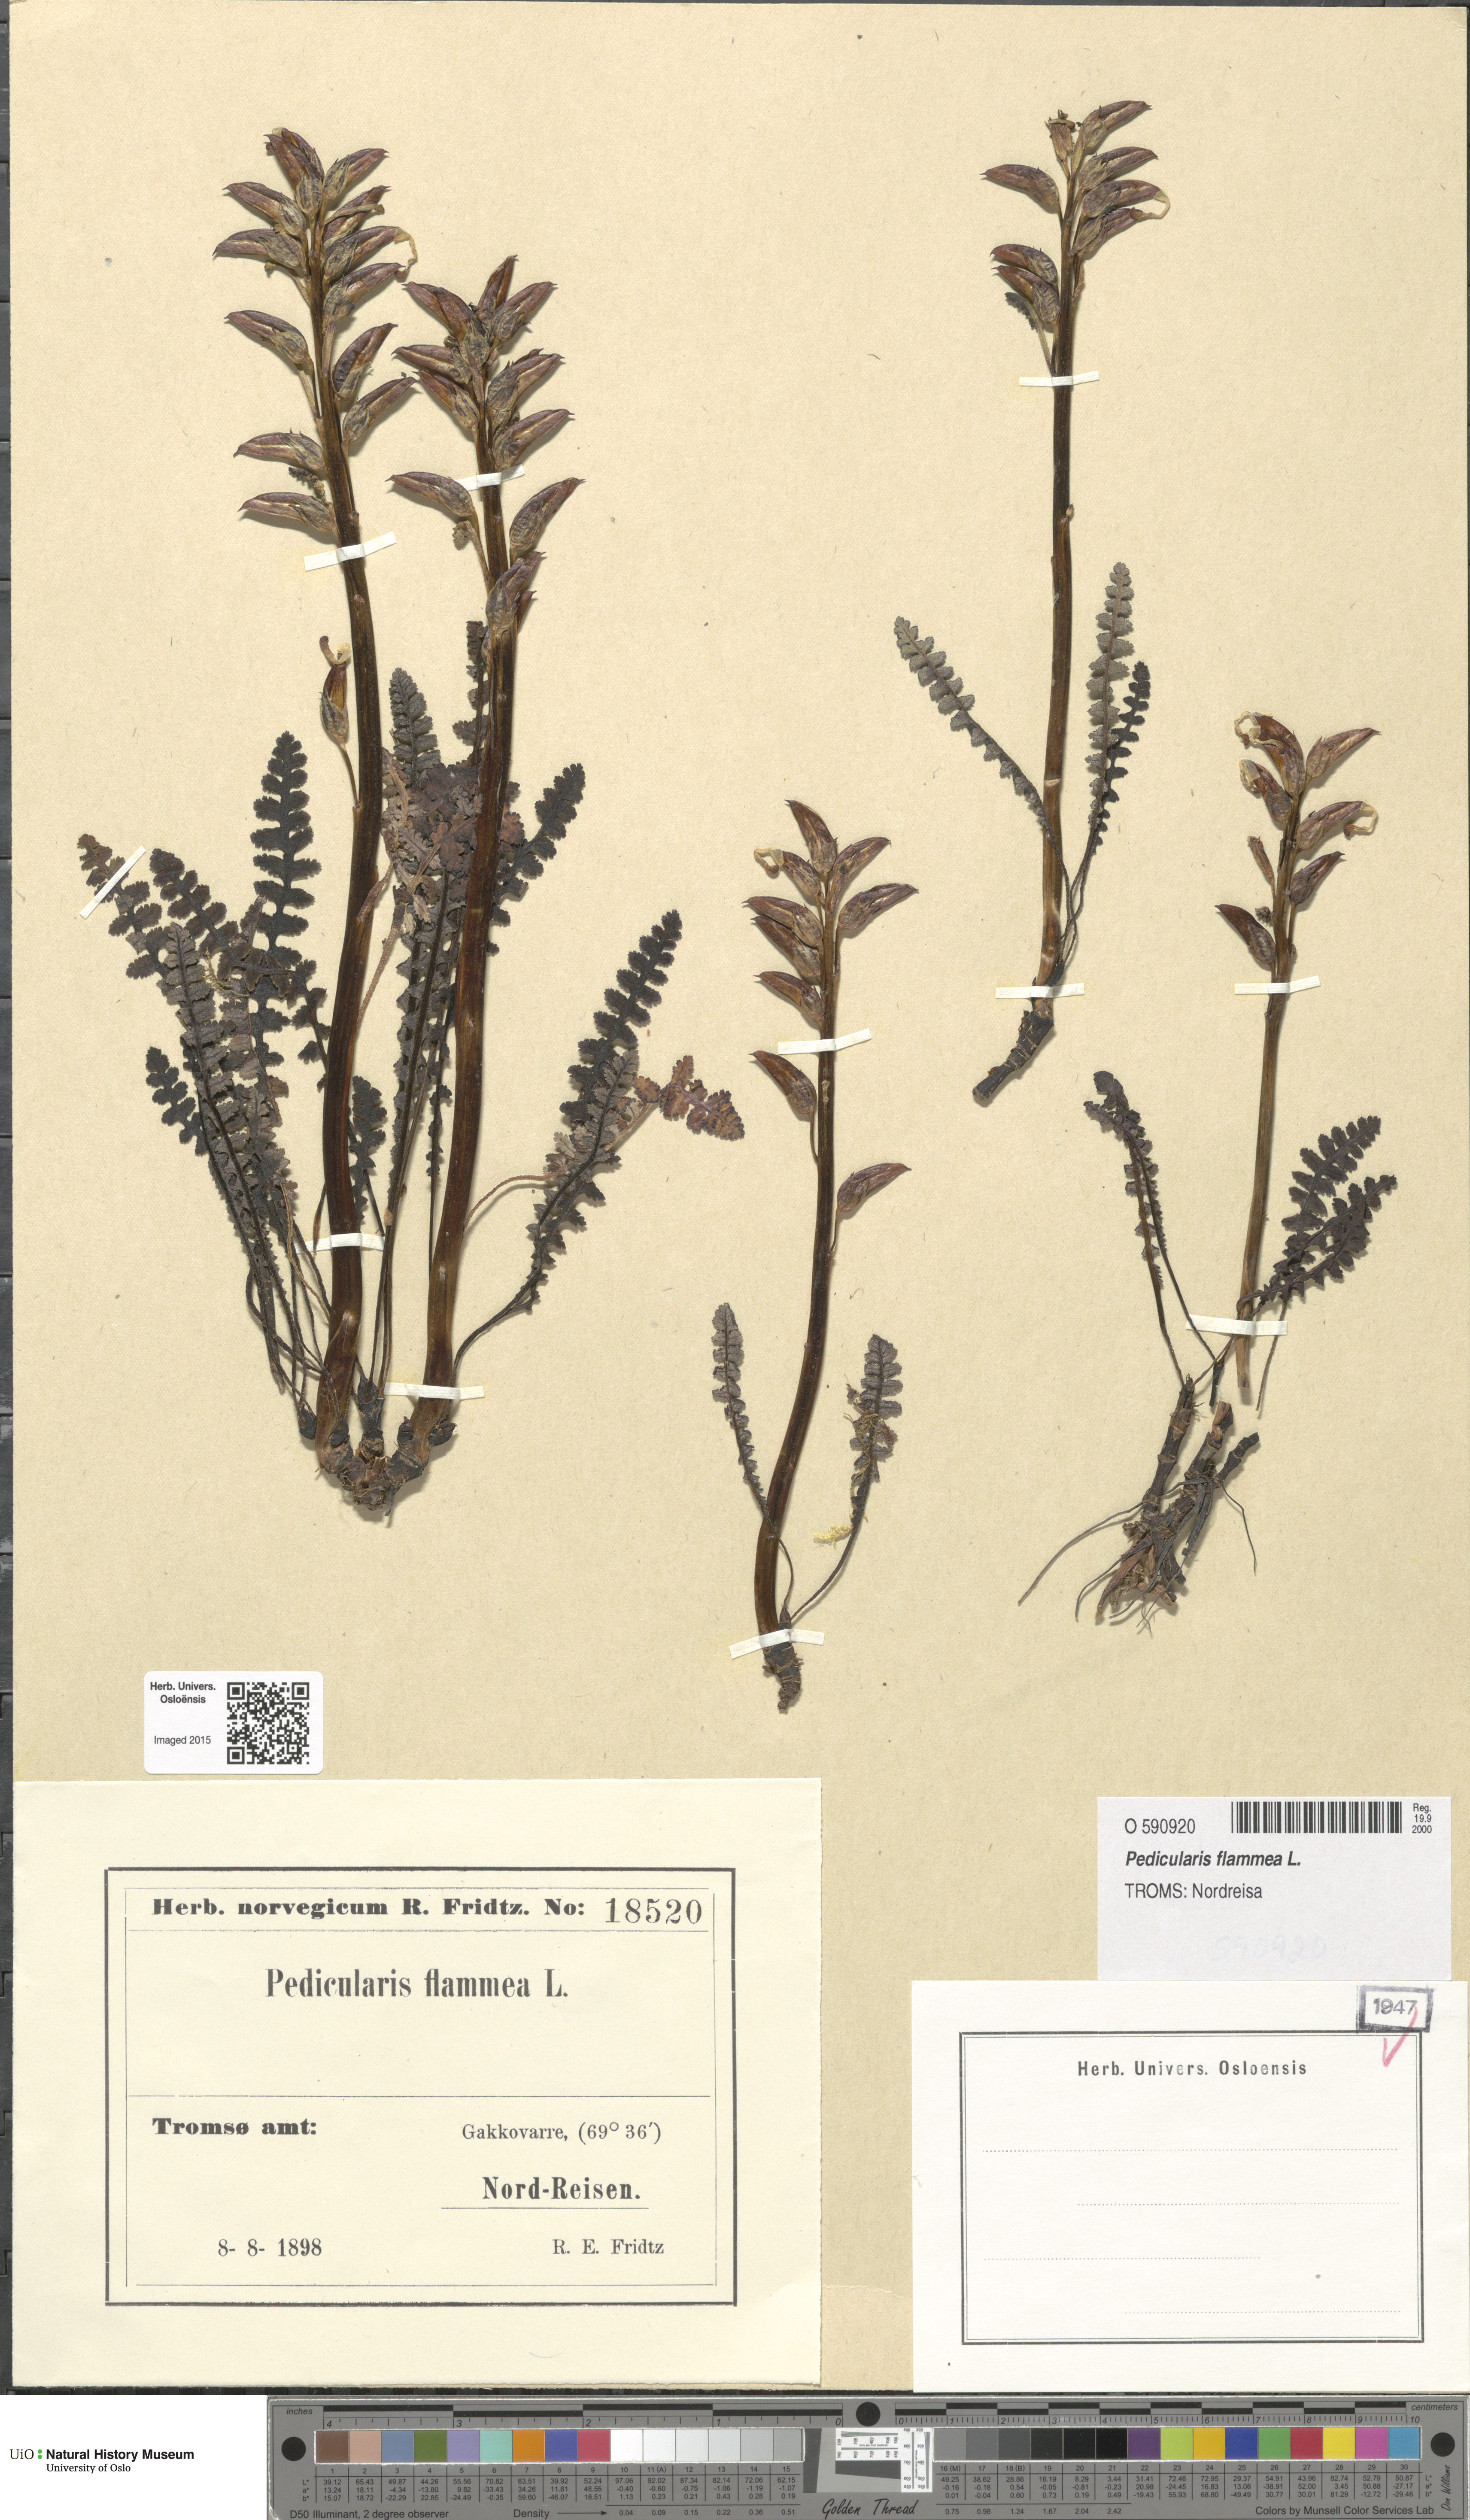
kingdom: Plantae
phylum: Tracheophyta
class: Magnoliopsida
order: Lamiales
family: Orobanchaceae
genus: Pedicularis
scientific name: Pedicularis flammea
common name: Flame-coloured lousewort
